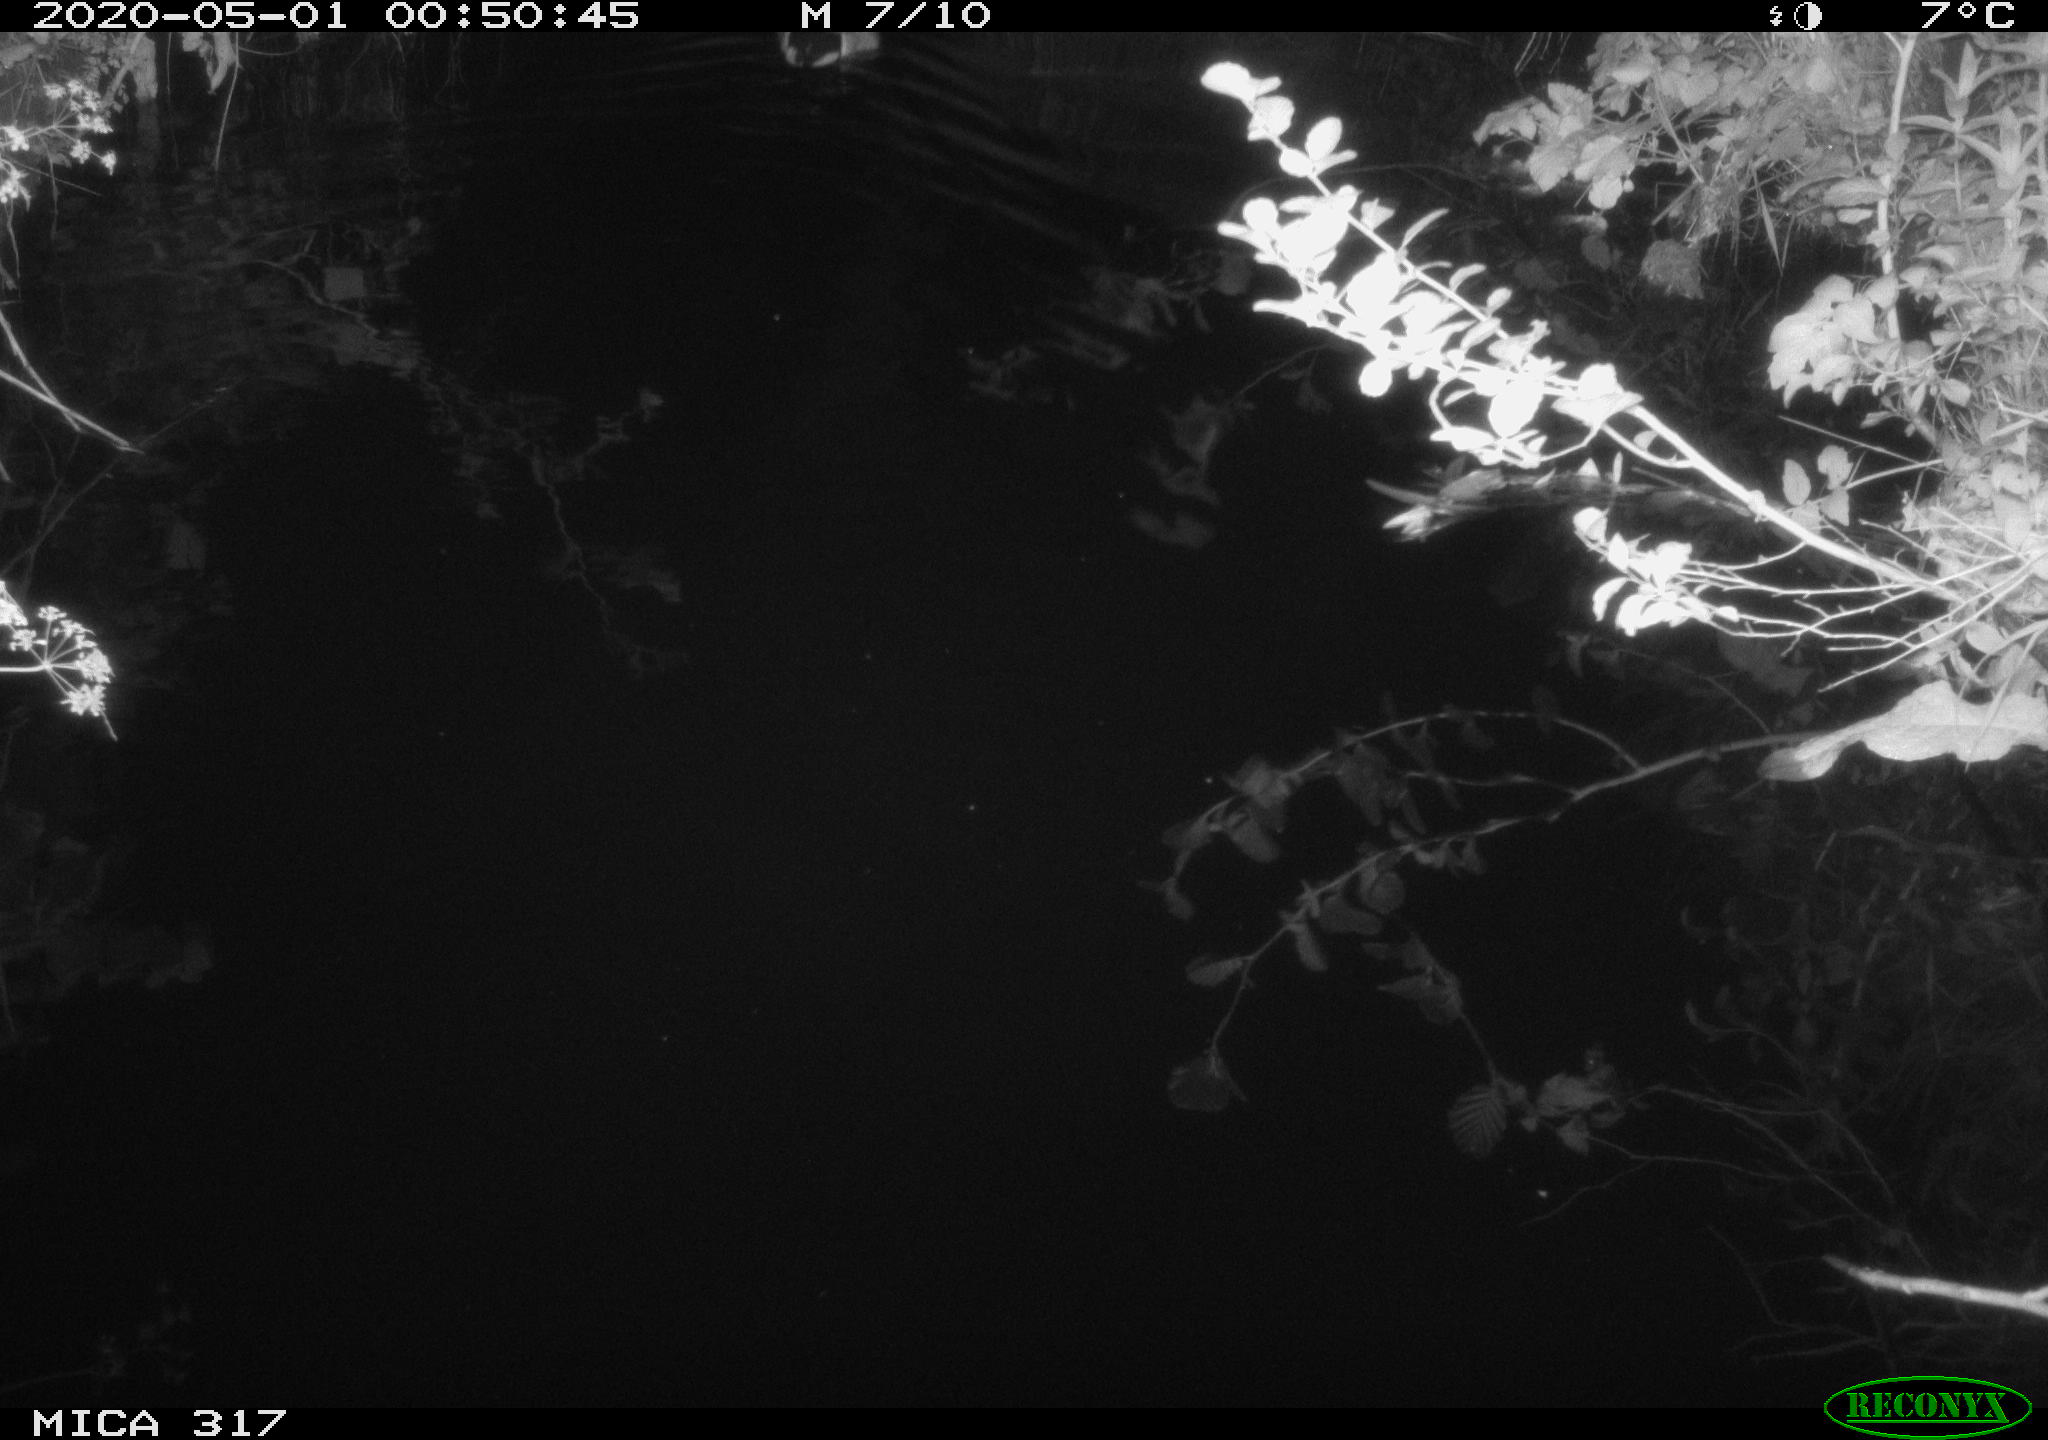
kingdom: Animalia
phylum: Chordata
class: Aves
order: Anseriformes
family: Anatidae
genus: Anas
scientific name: Anas platyrhynchos
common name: Mallard
